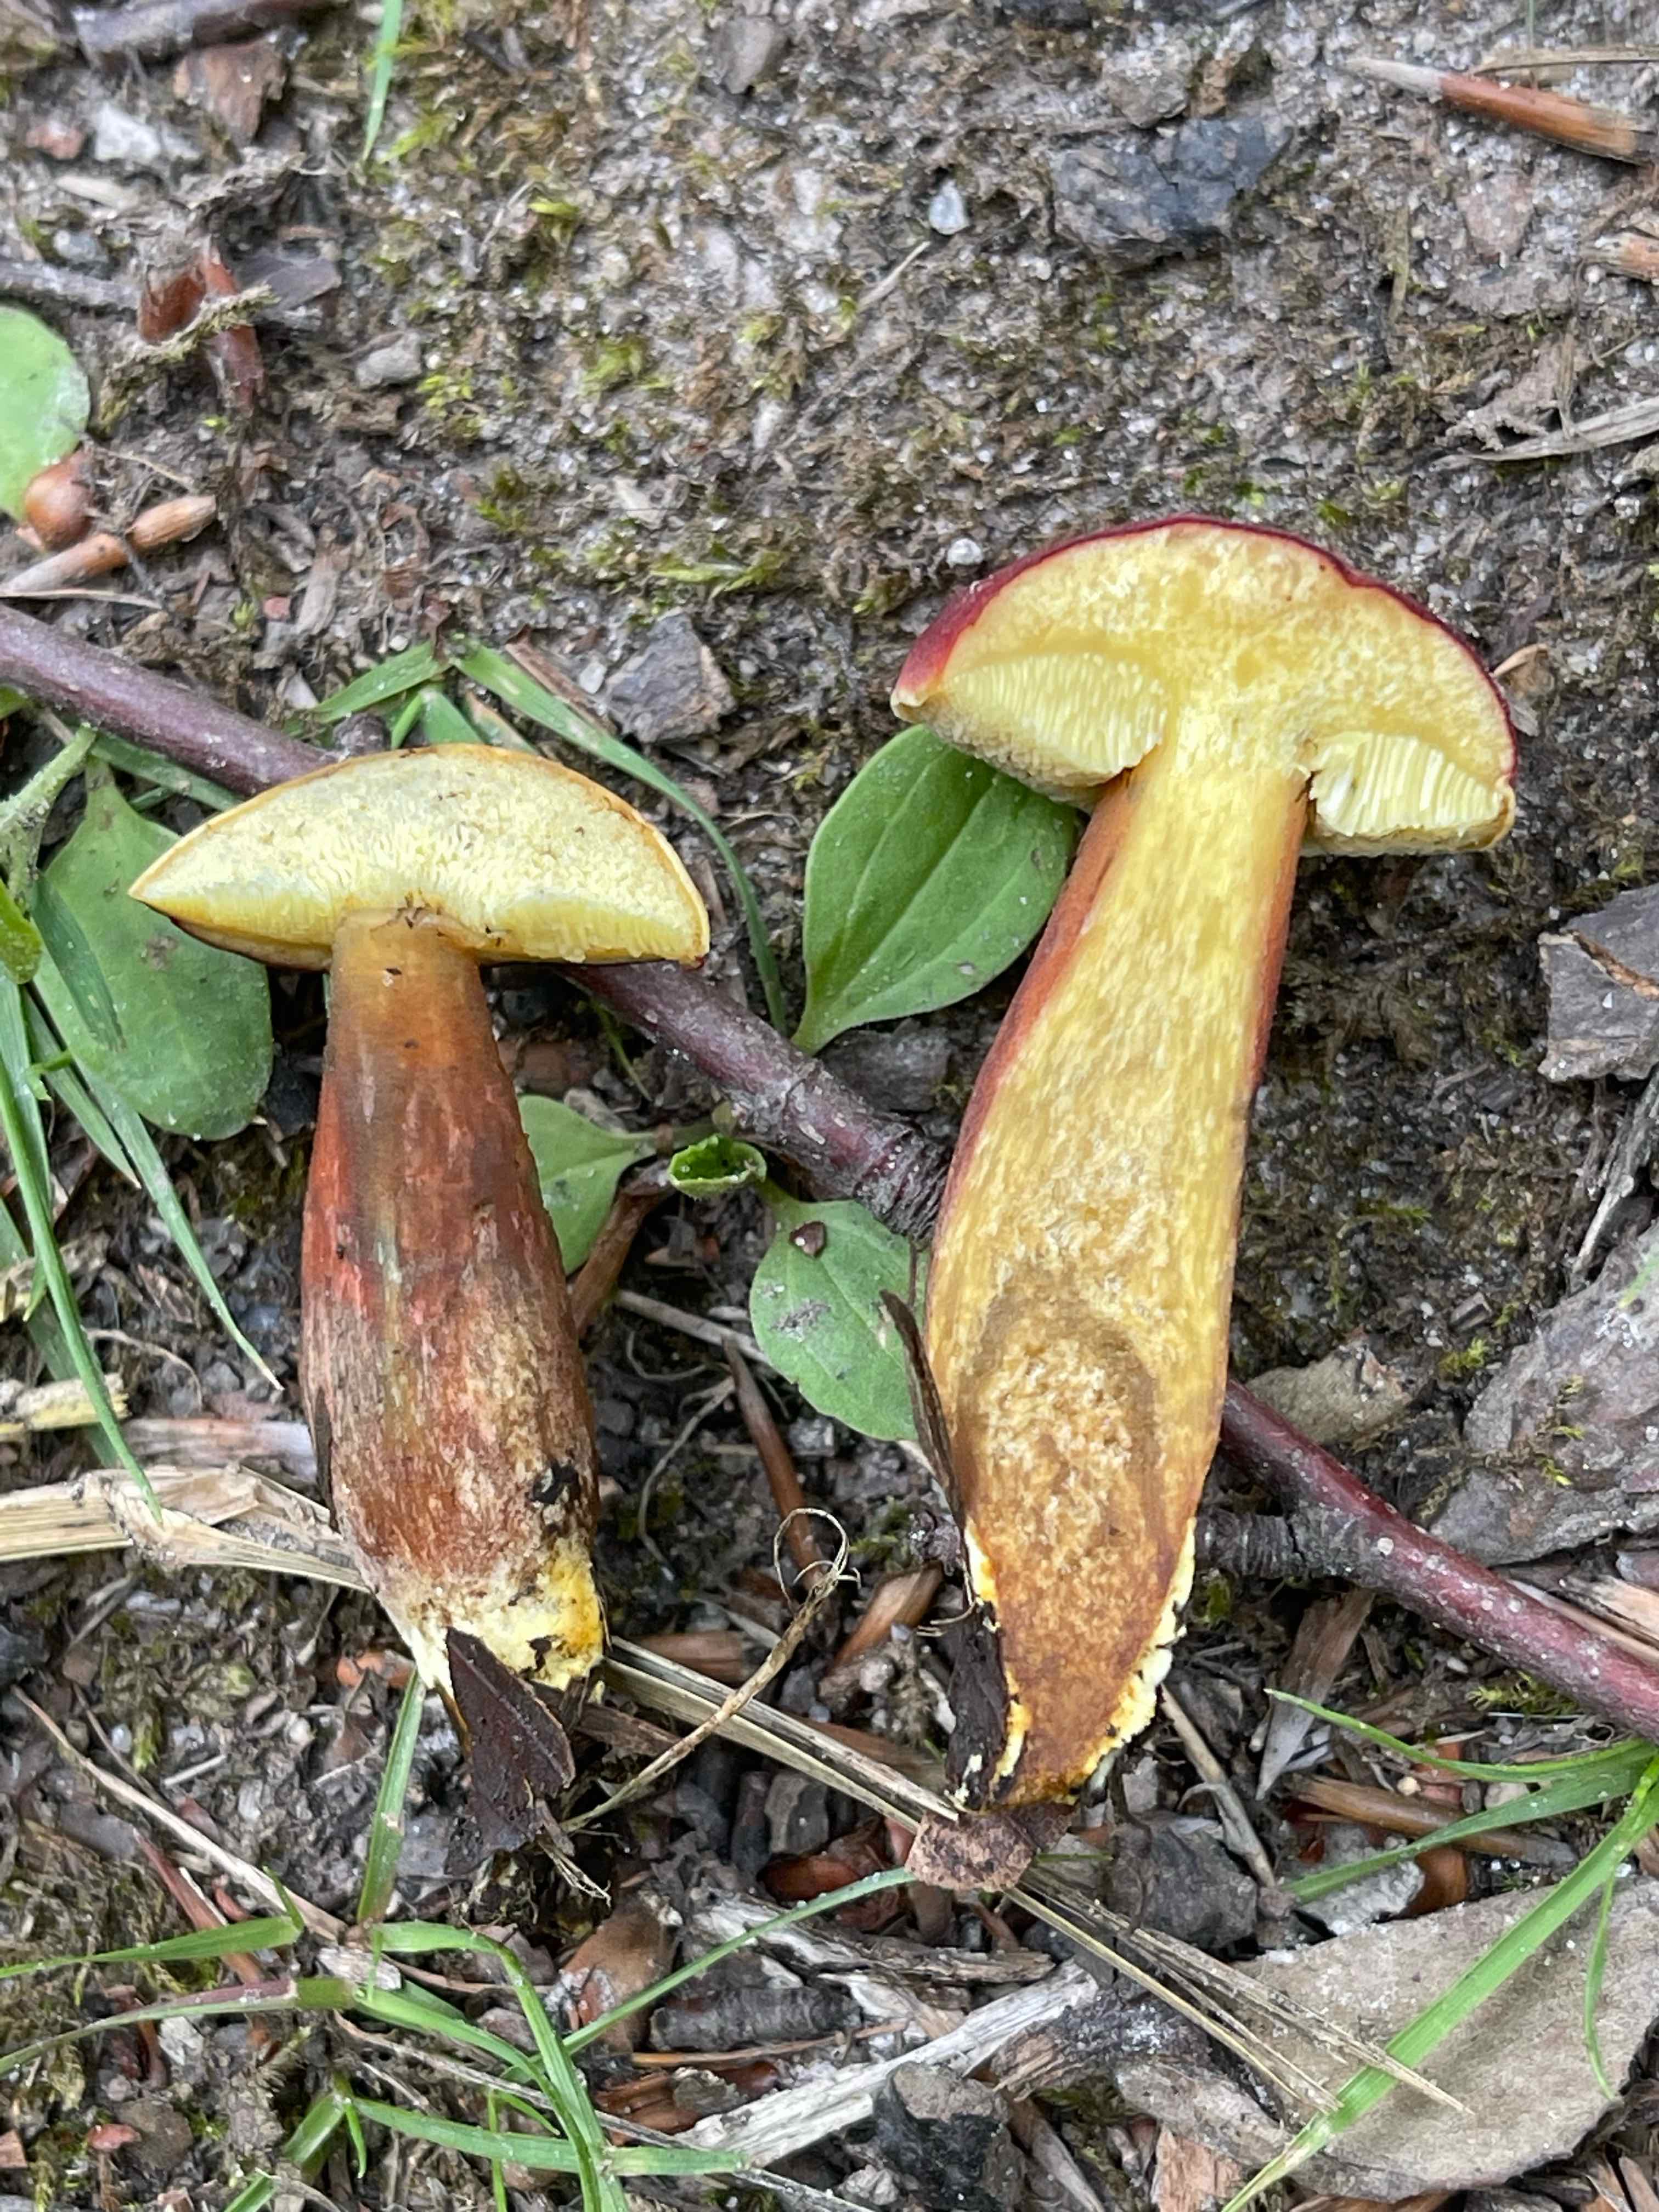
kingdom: Fungi
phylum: Basidiomycota
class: Agaricomycetes
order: Boletales
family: Boletaceae
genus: Hortiboletus
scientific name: Hortiboletus rubellus
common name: blodrød rørhat
